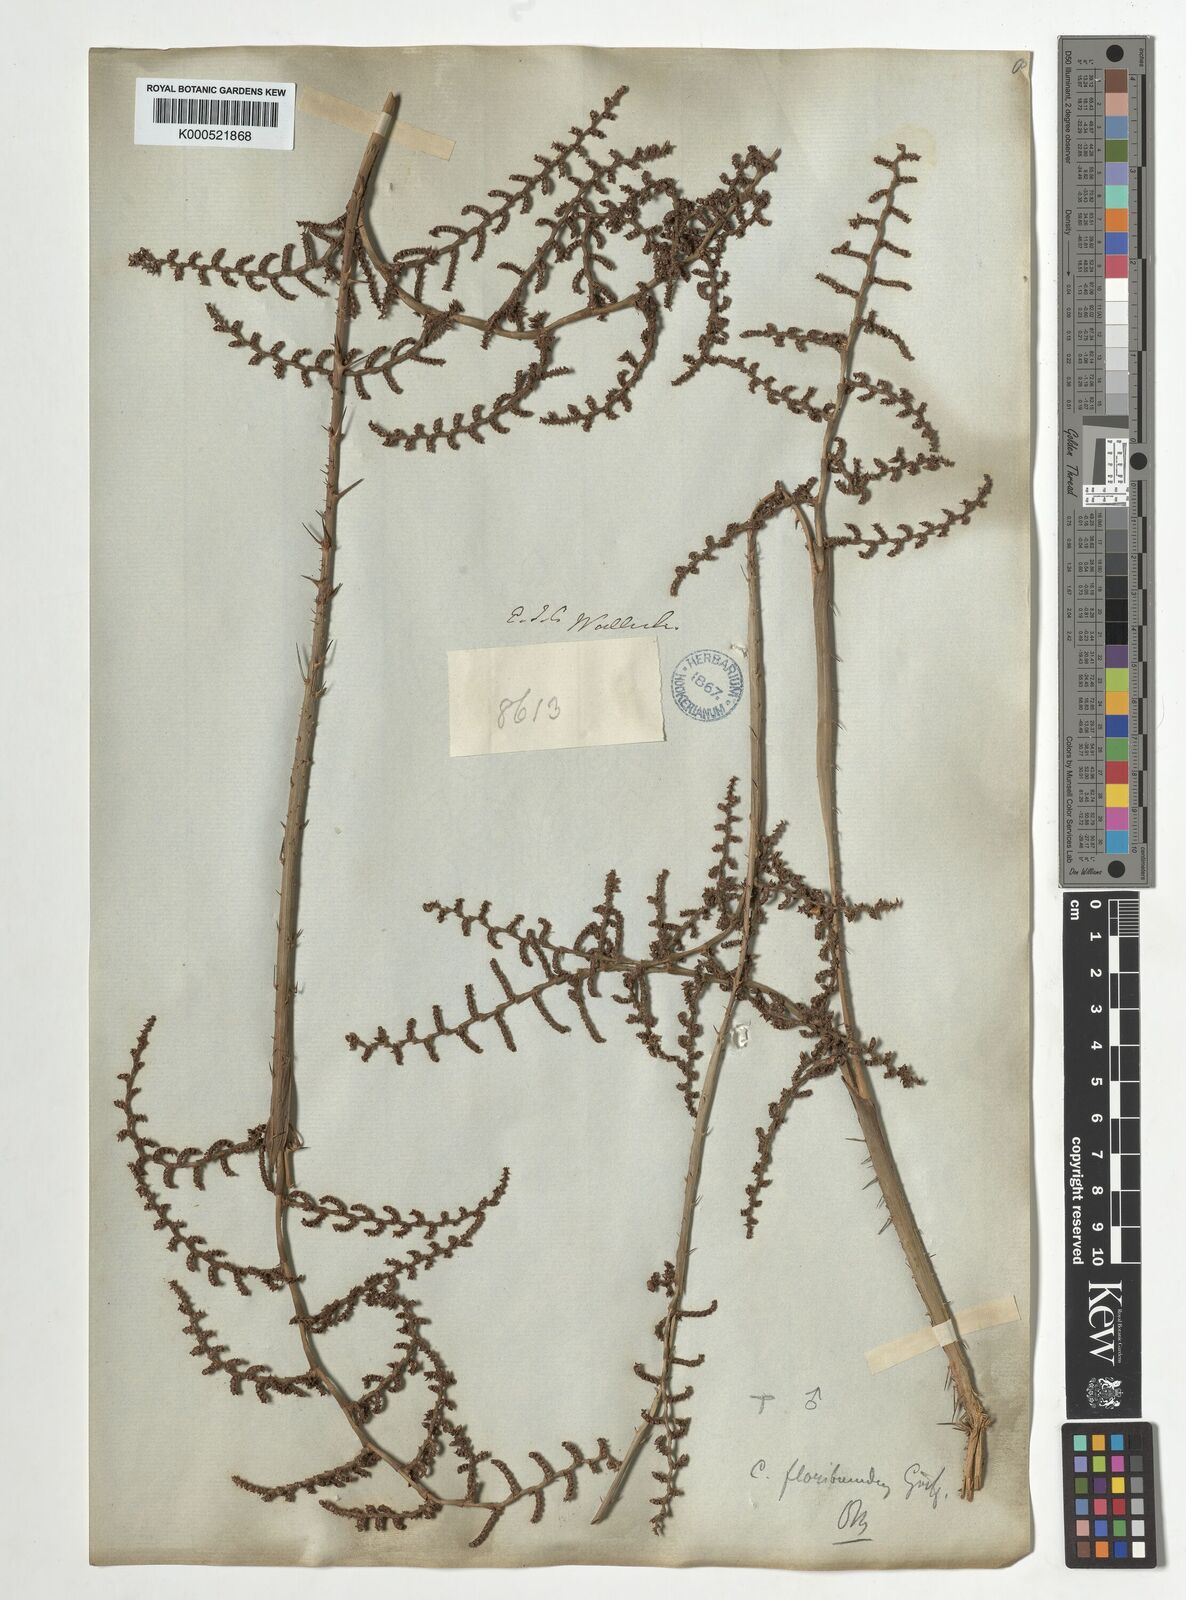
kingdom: Plantae
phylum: Tracheophyta
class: Liliopsida
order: Arecales
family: Arecaceae
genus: Calamus
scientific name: Calamus floribundus
